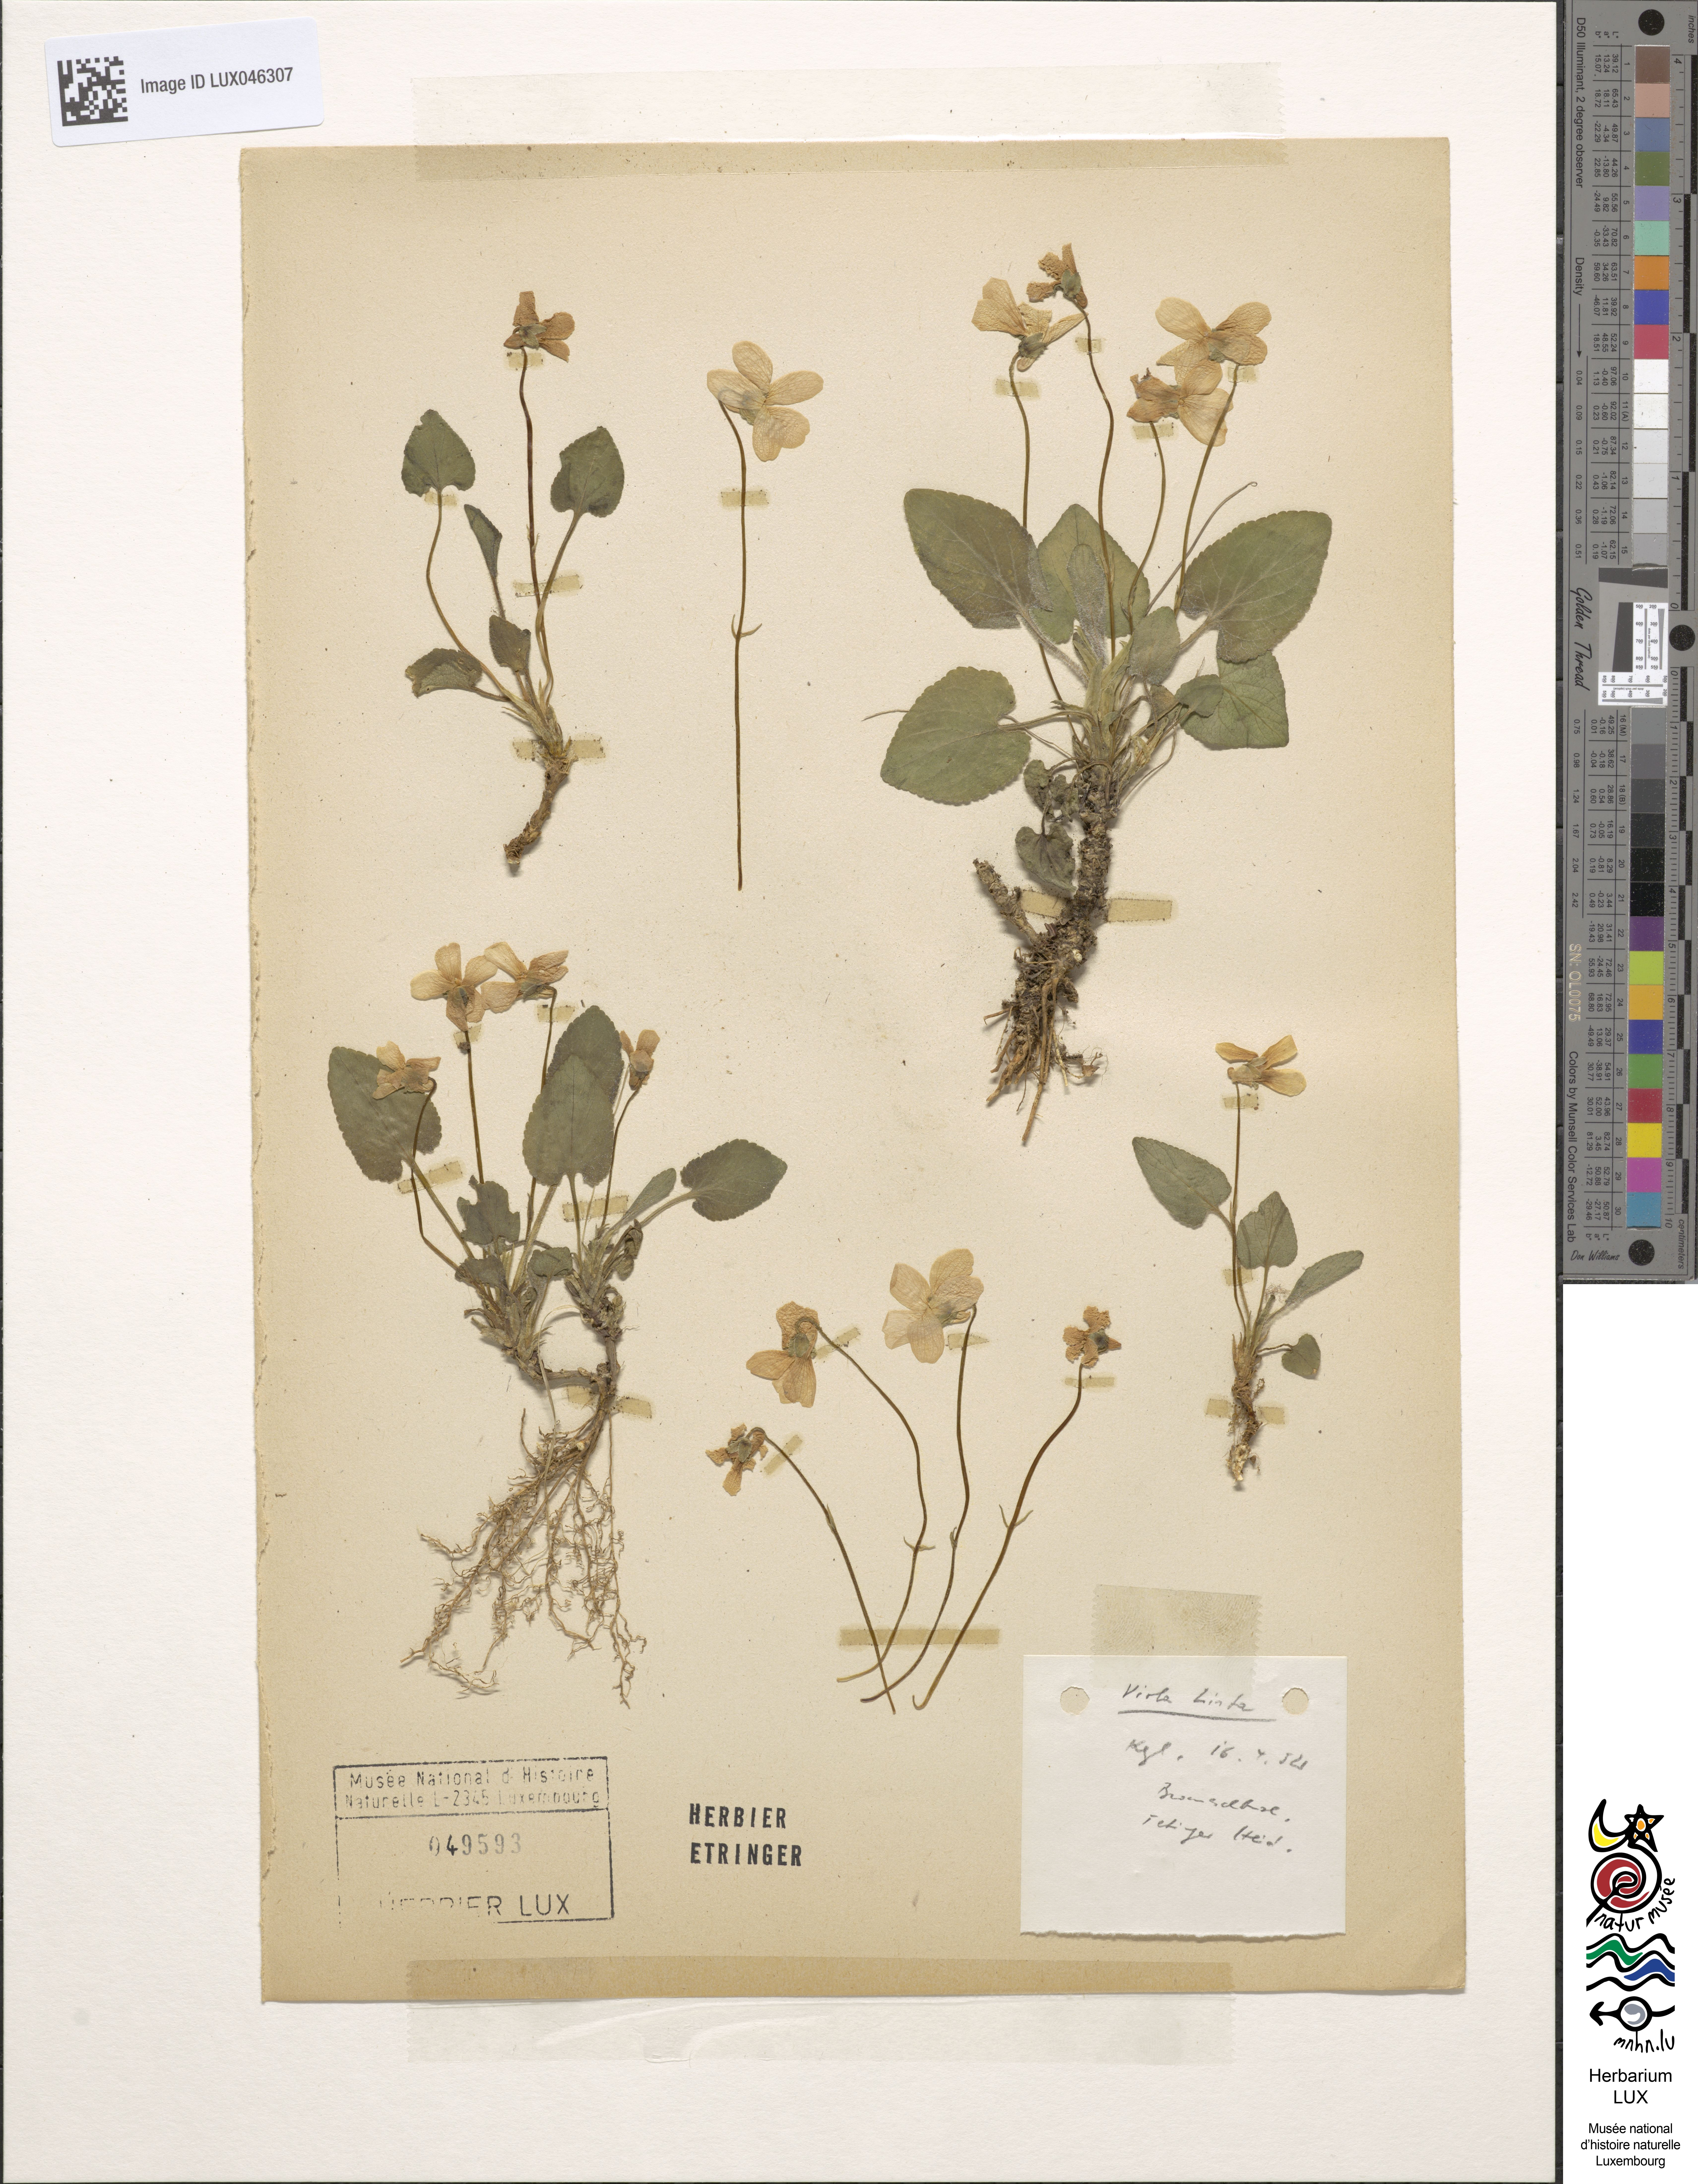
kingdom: Plantae
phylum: Tracheophyta
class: Magnoliopsida
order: Malpighiales
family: Violaceae
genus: Viola
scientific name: Viola hirta
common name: Hairy violet
